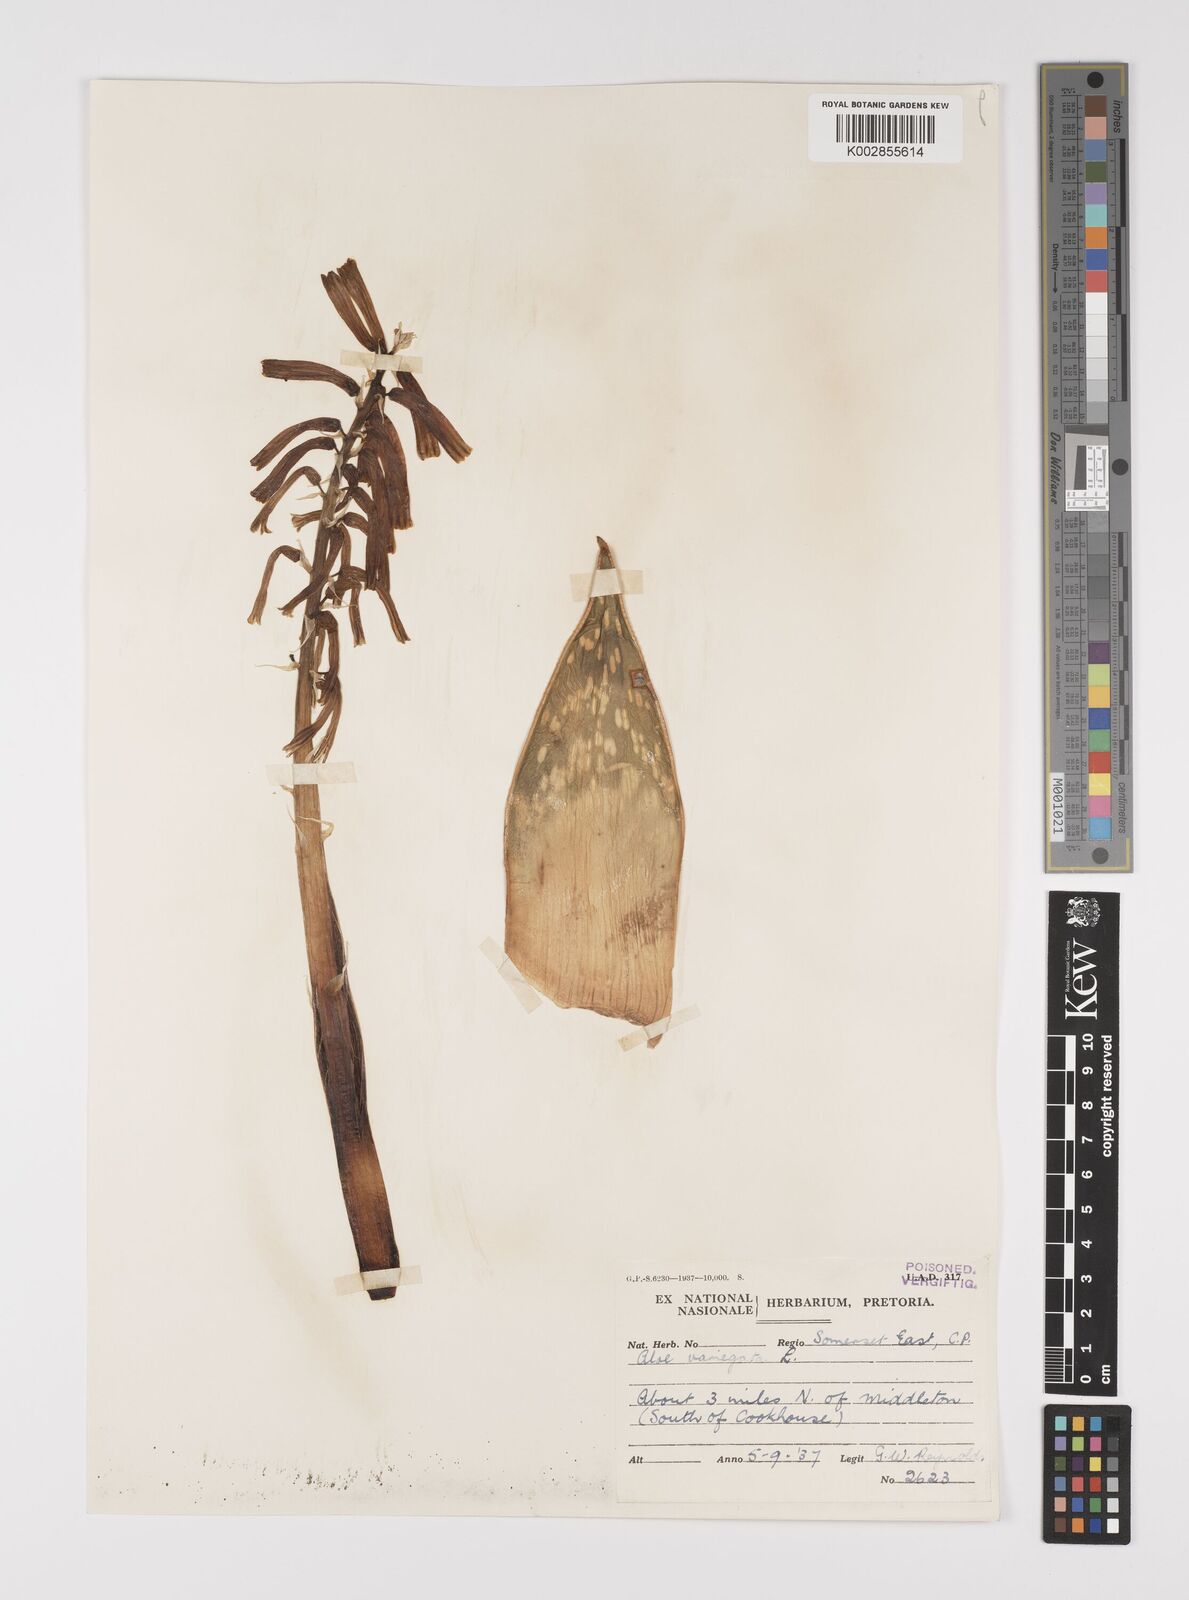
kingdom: Plantae
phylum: Tracheophyta
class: Liliopsida
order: Asparagales
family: Asphodelaceae
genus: Gonialoe
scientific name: Gonialoe variegata
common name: Aloe variegata
